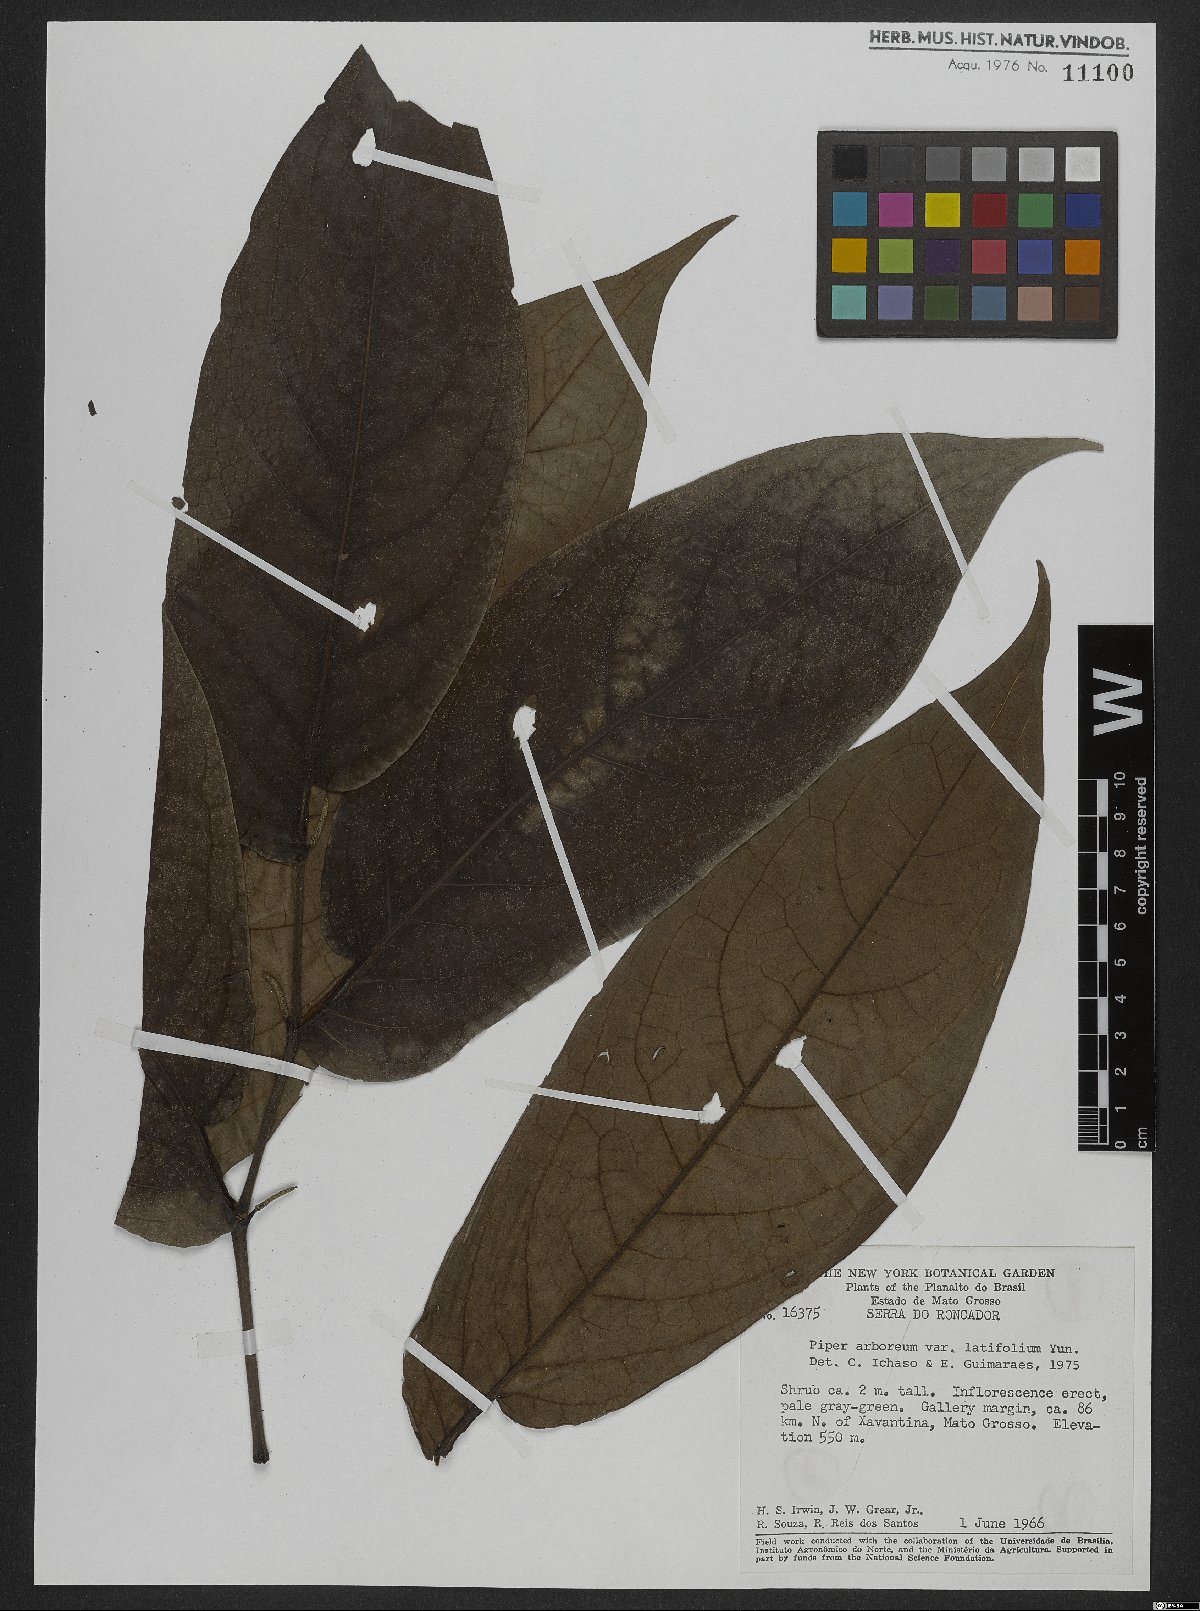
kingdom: Plantae
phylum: Tracheophyta
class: Magnoliopsida
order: Piperales
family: Piperaceae
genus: Piper
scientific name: Piper arboreum
